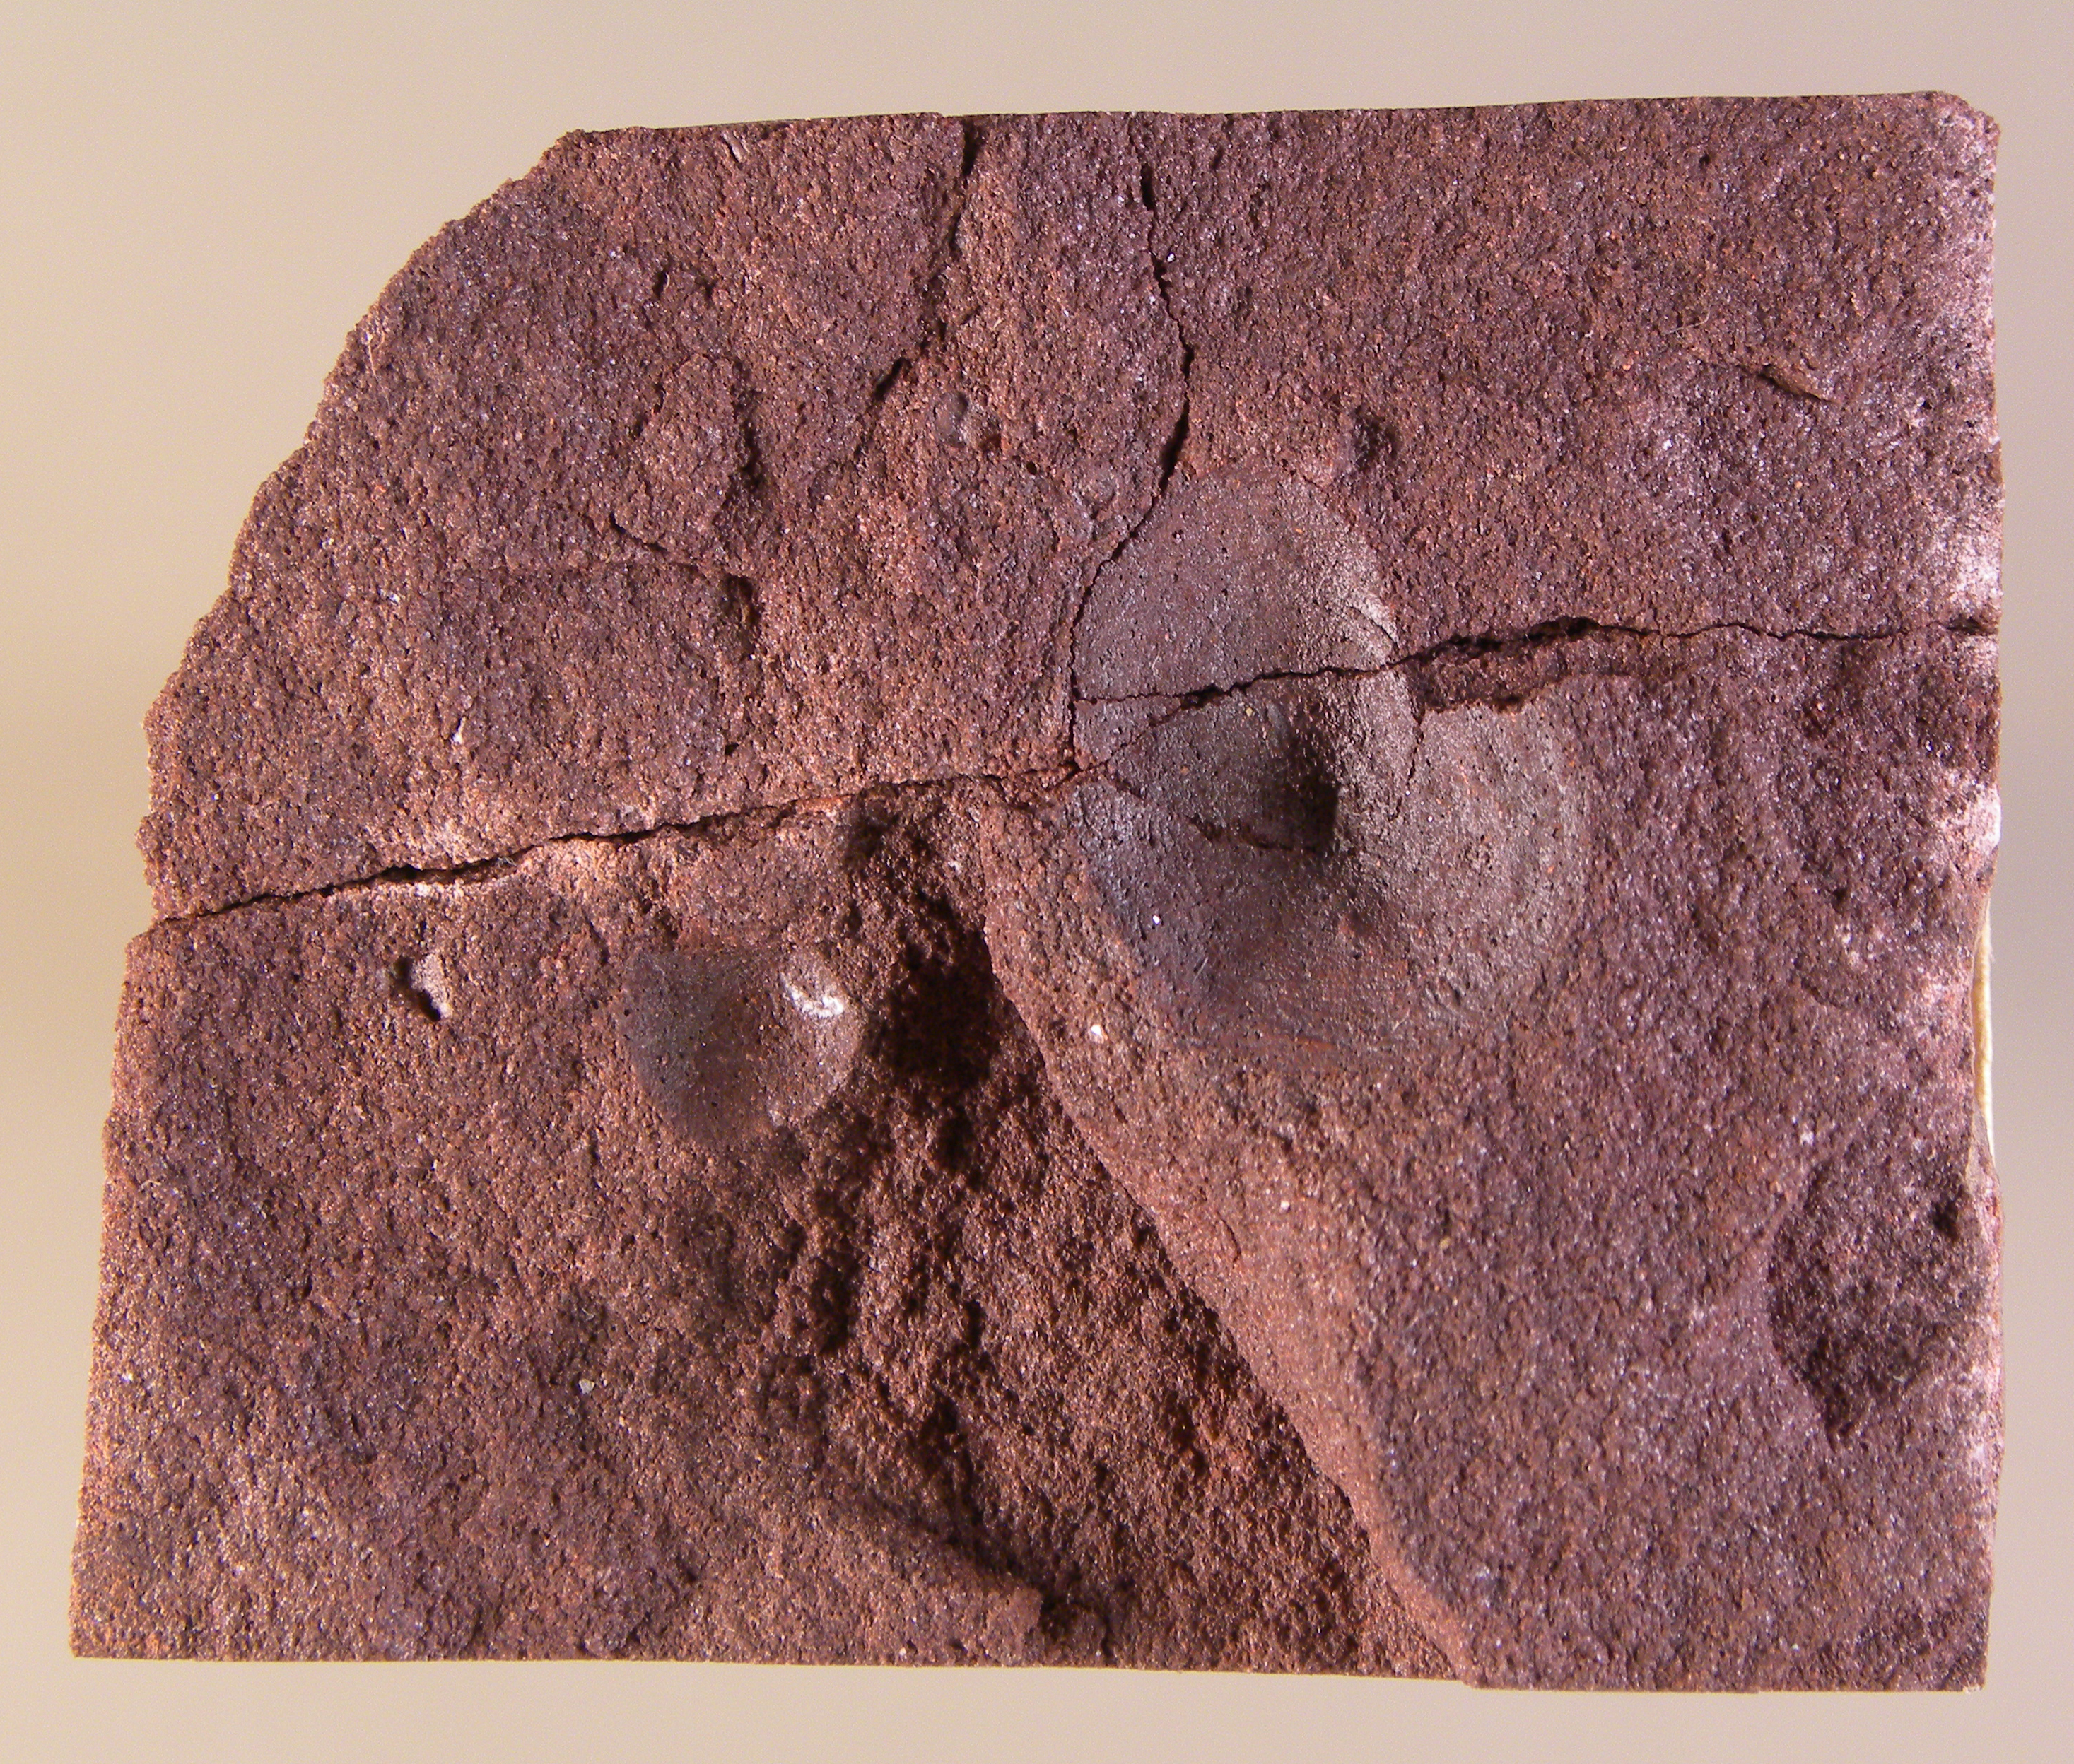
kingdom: Animalia
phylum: Brachiopoda
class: Craniata
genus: Merglia
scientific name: Merglia
